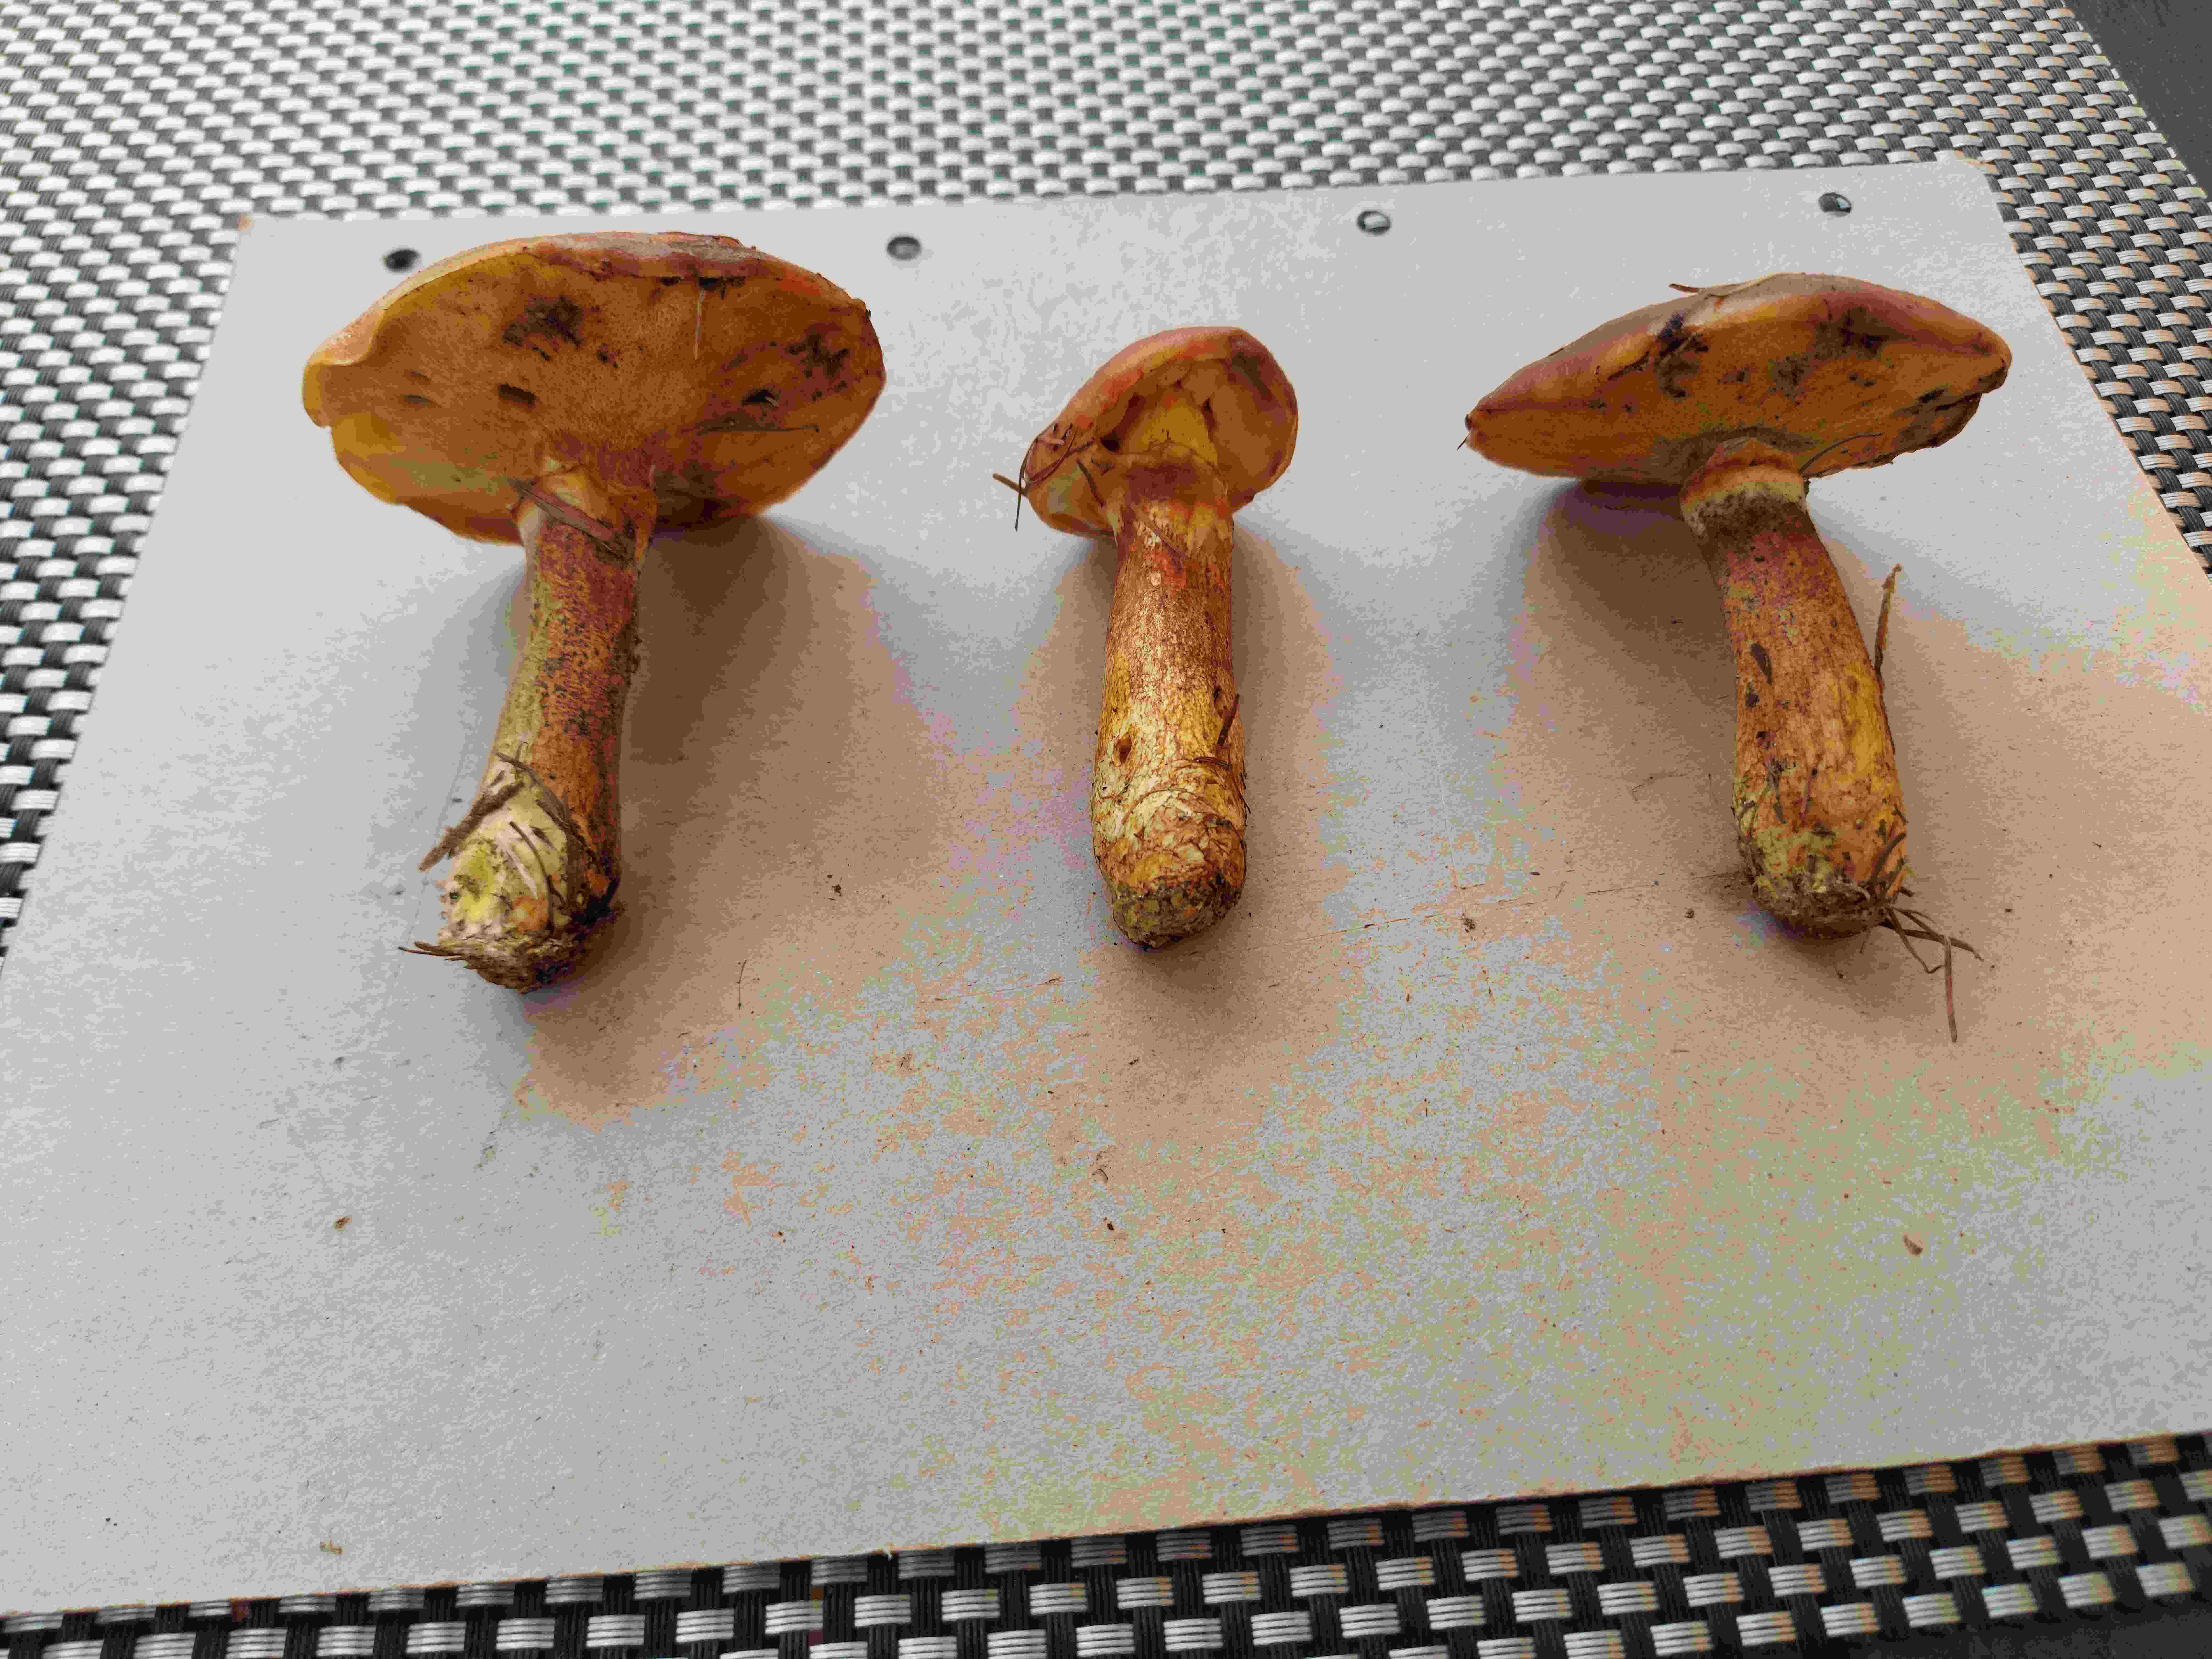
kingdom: Fungi
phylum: Basidiomycota
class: Agaricomycetes
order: Boletales
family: Suillaceae
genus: Suillus
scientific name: Suillus grevillei
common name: lærke-slimrørhat
